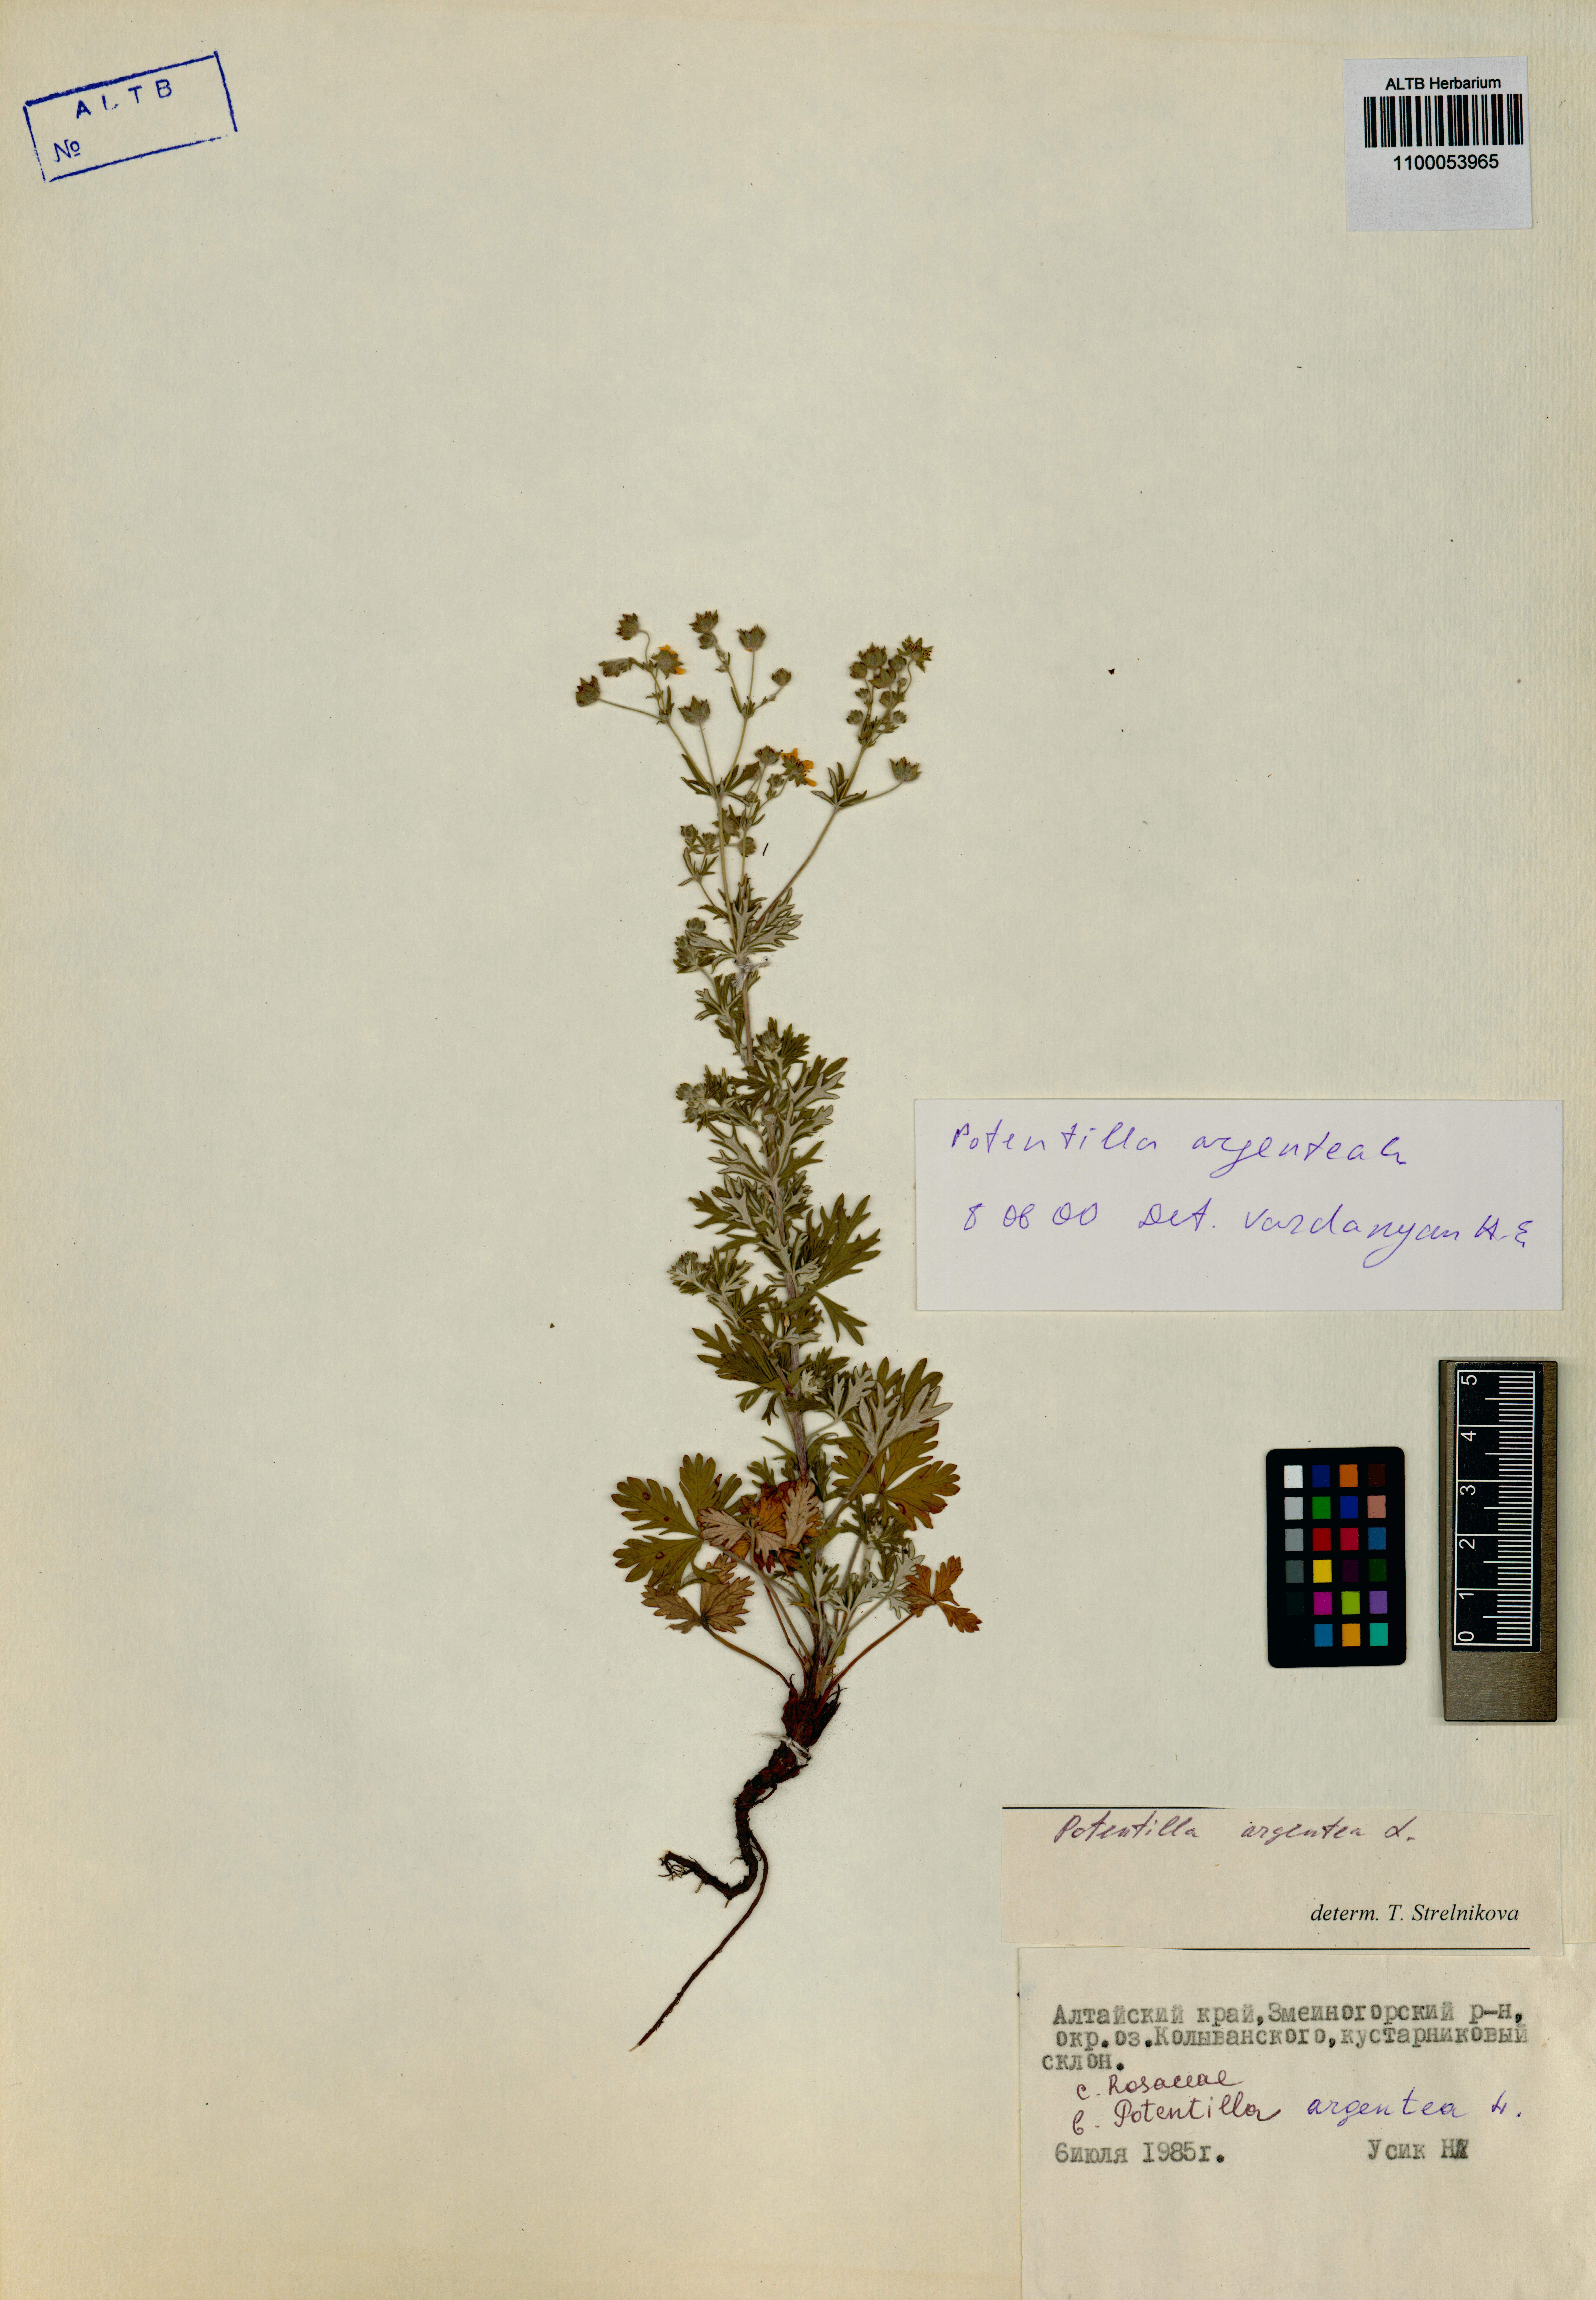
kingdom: Plantae
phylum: Tracheophyta
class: Magnoliopsida
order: Rosales
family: Rosaceae
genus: Potentilla
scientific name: Potentilla argentea
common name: Hoary cinquefoil
